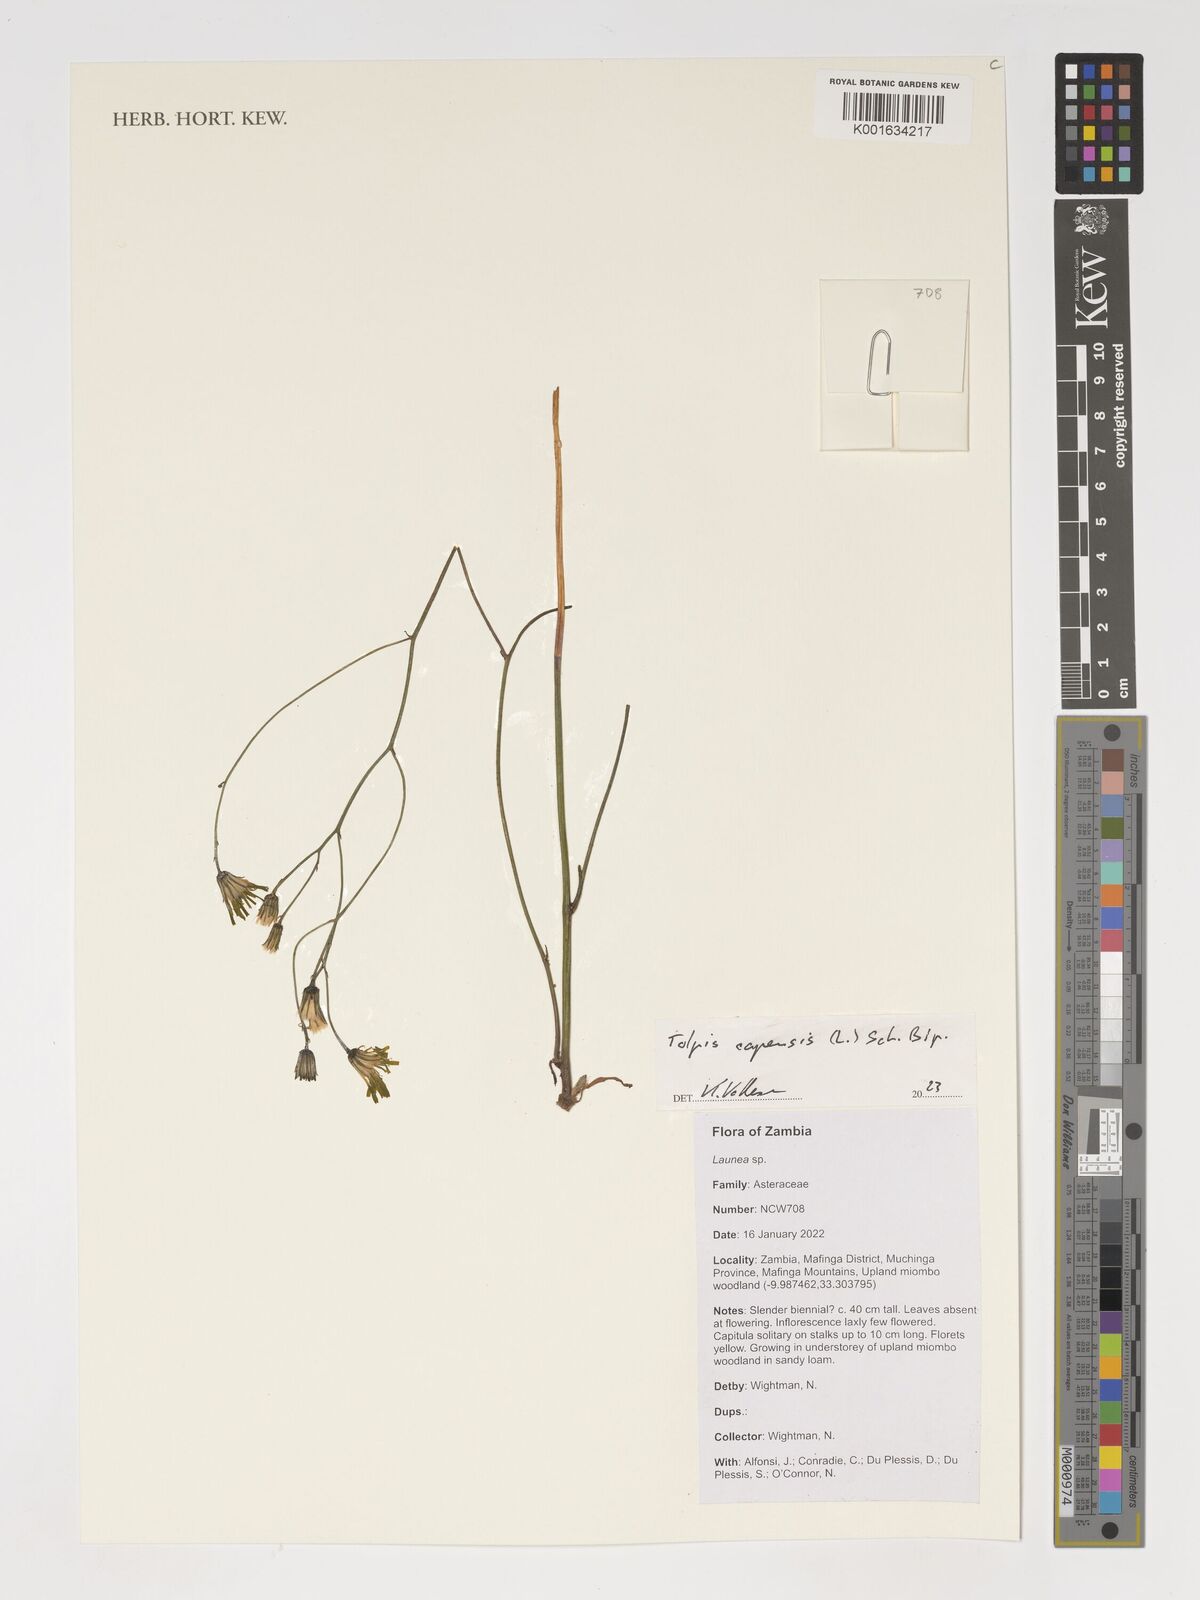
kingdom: Plantae
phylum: Tracheophyta
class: Magnoliopsida
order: Asterales
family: Asteraceae
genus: Tolpis
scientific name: Tolpis capensis
